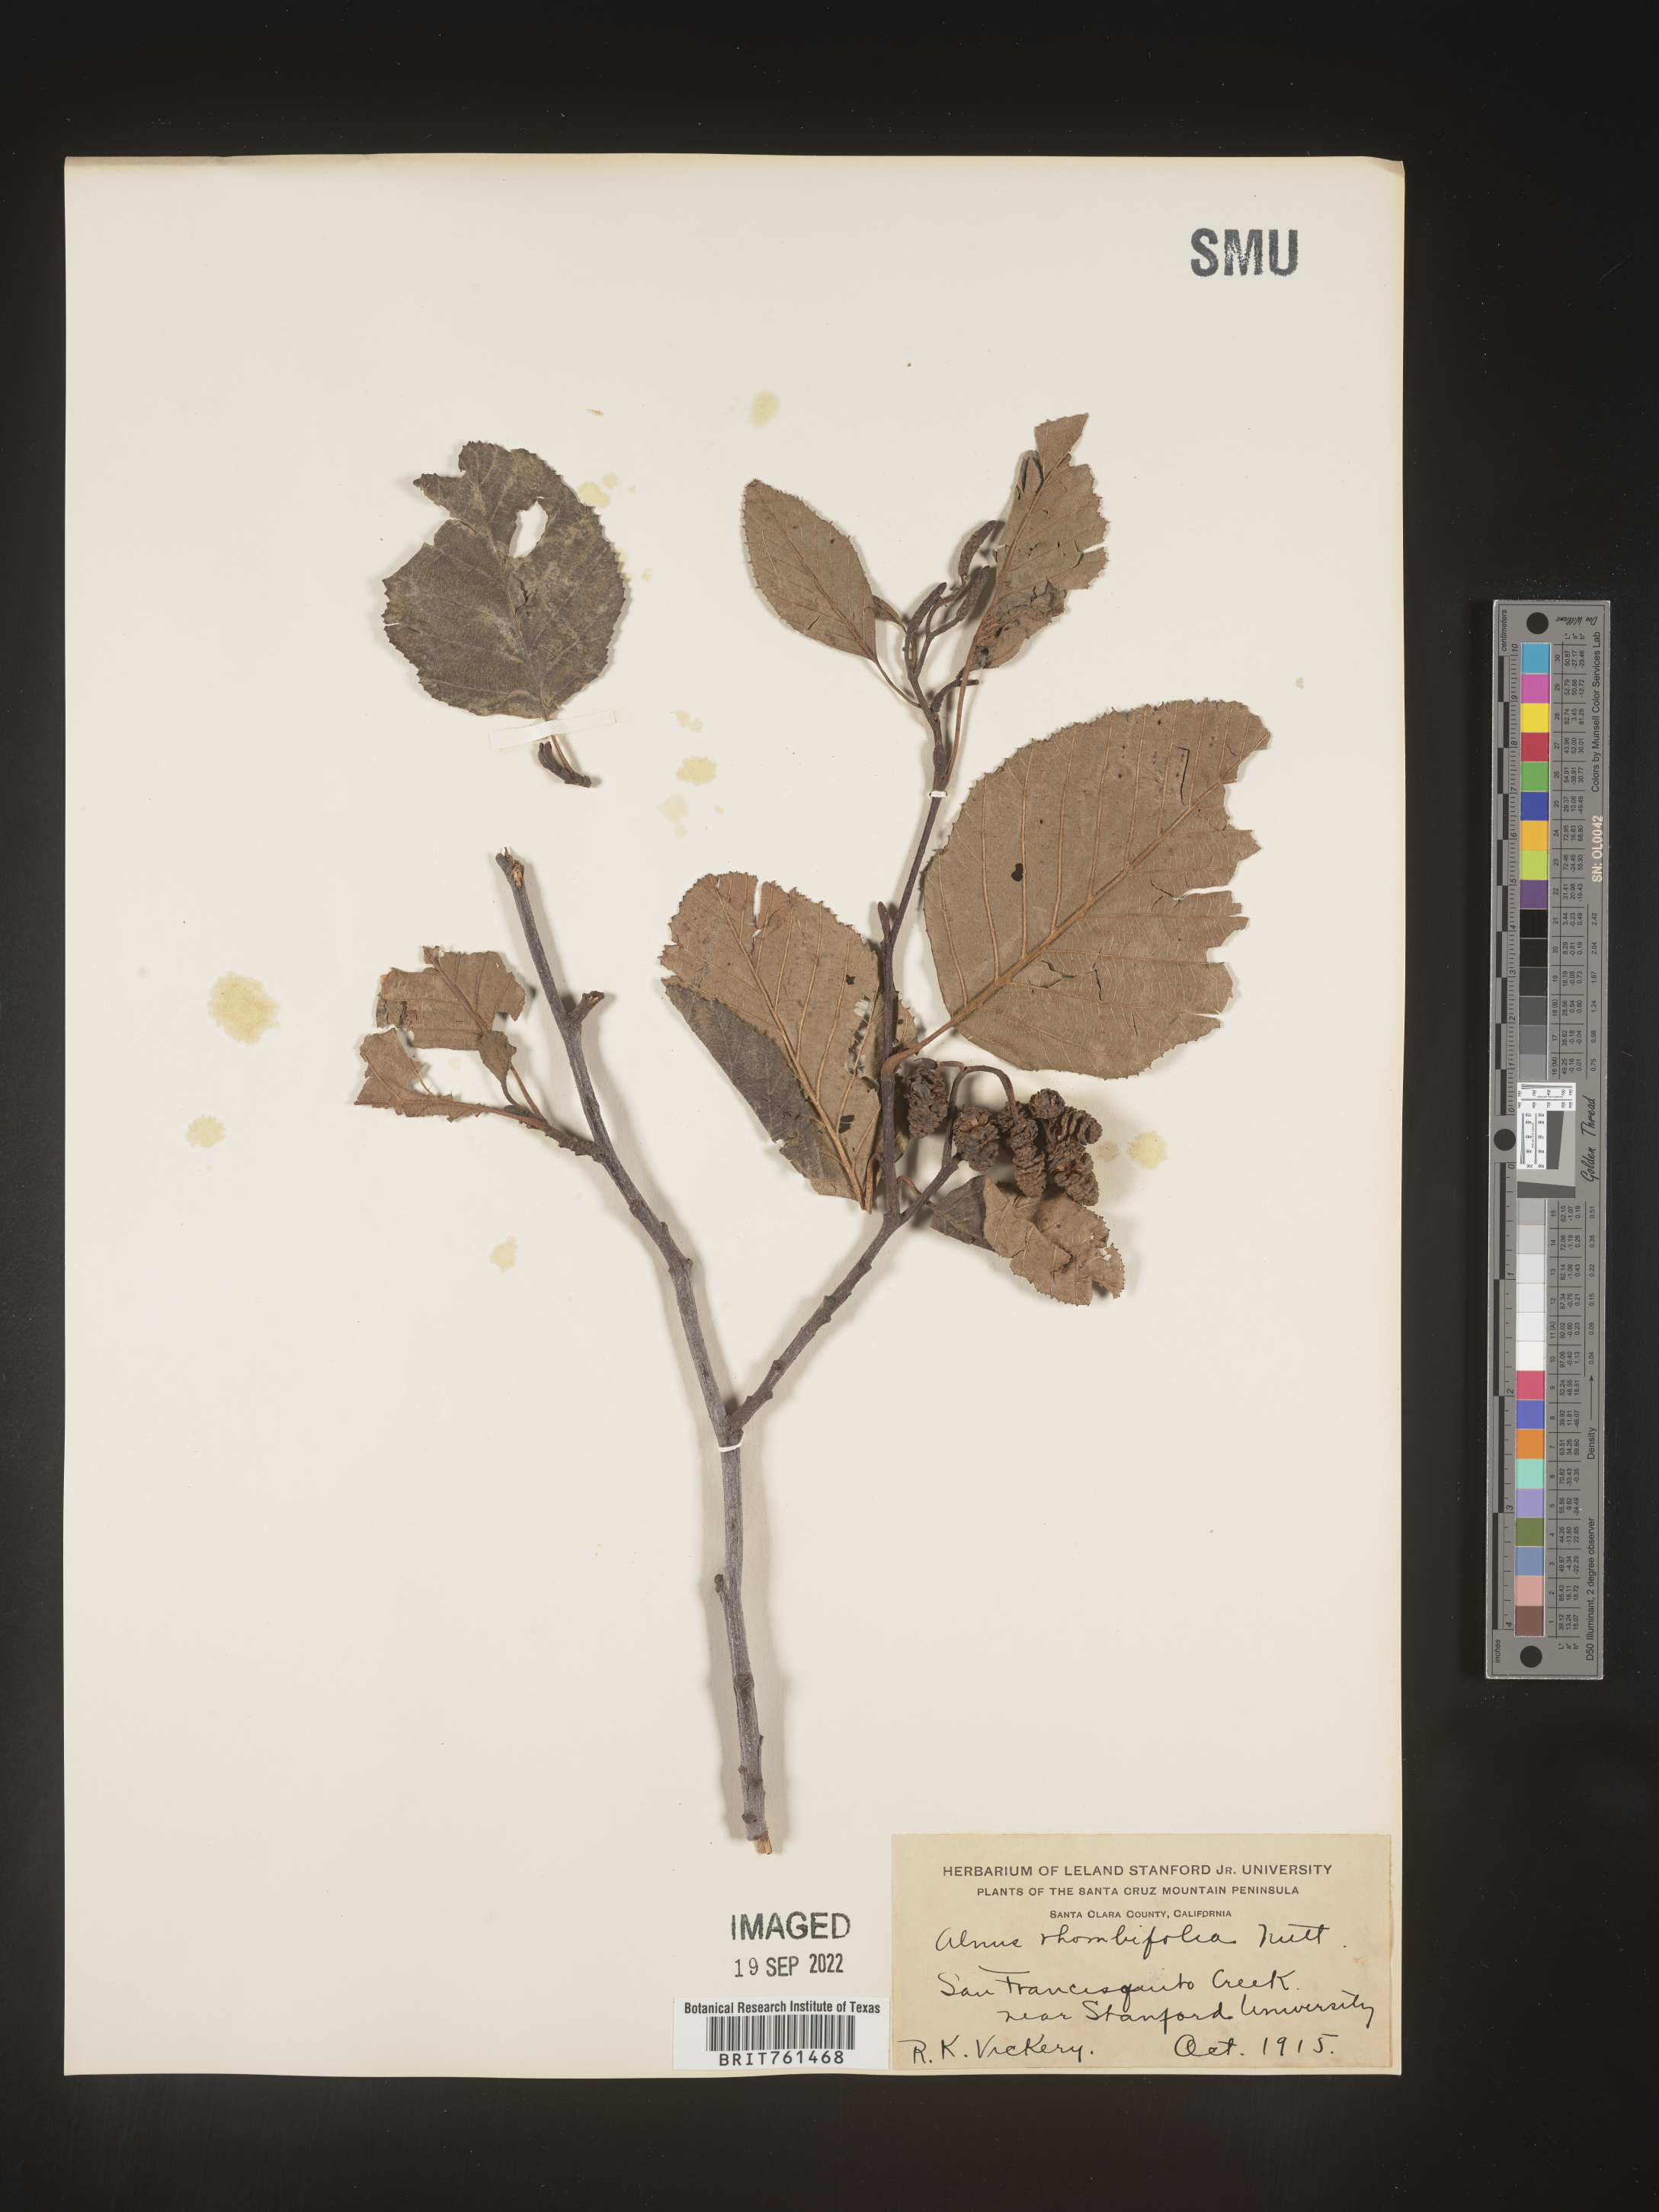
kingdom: Plantae
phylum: Tracheophyta
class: Magnoliopsida
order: Fagales
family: Betulaceae
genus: Alnus
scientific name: Alnus rhombifolia
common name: California alder
